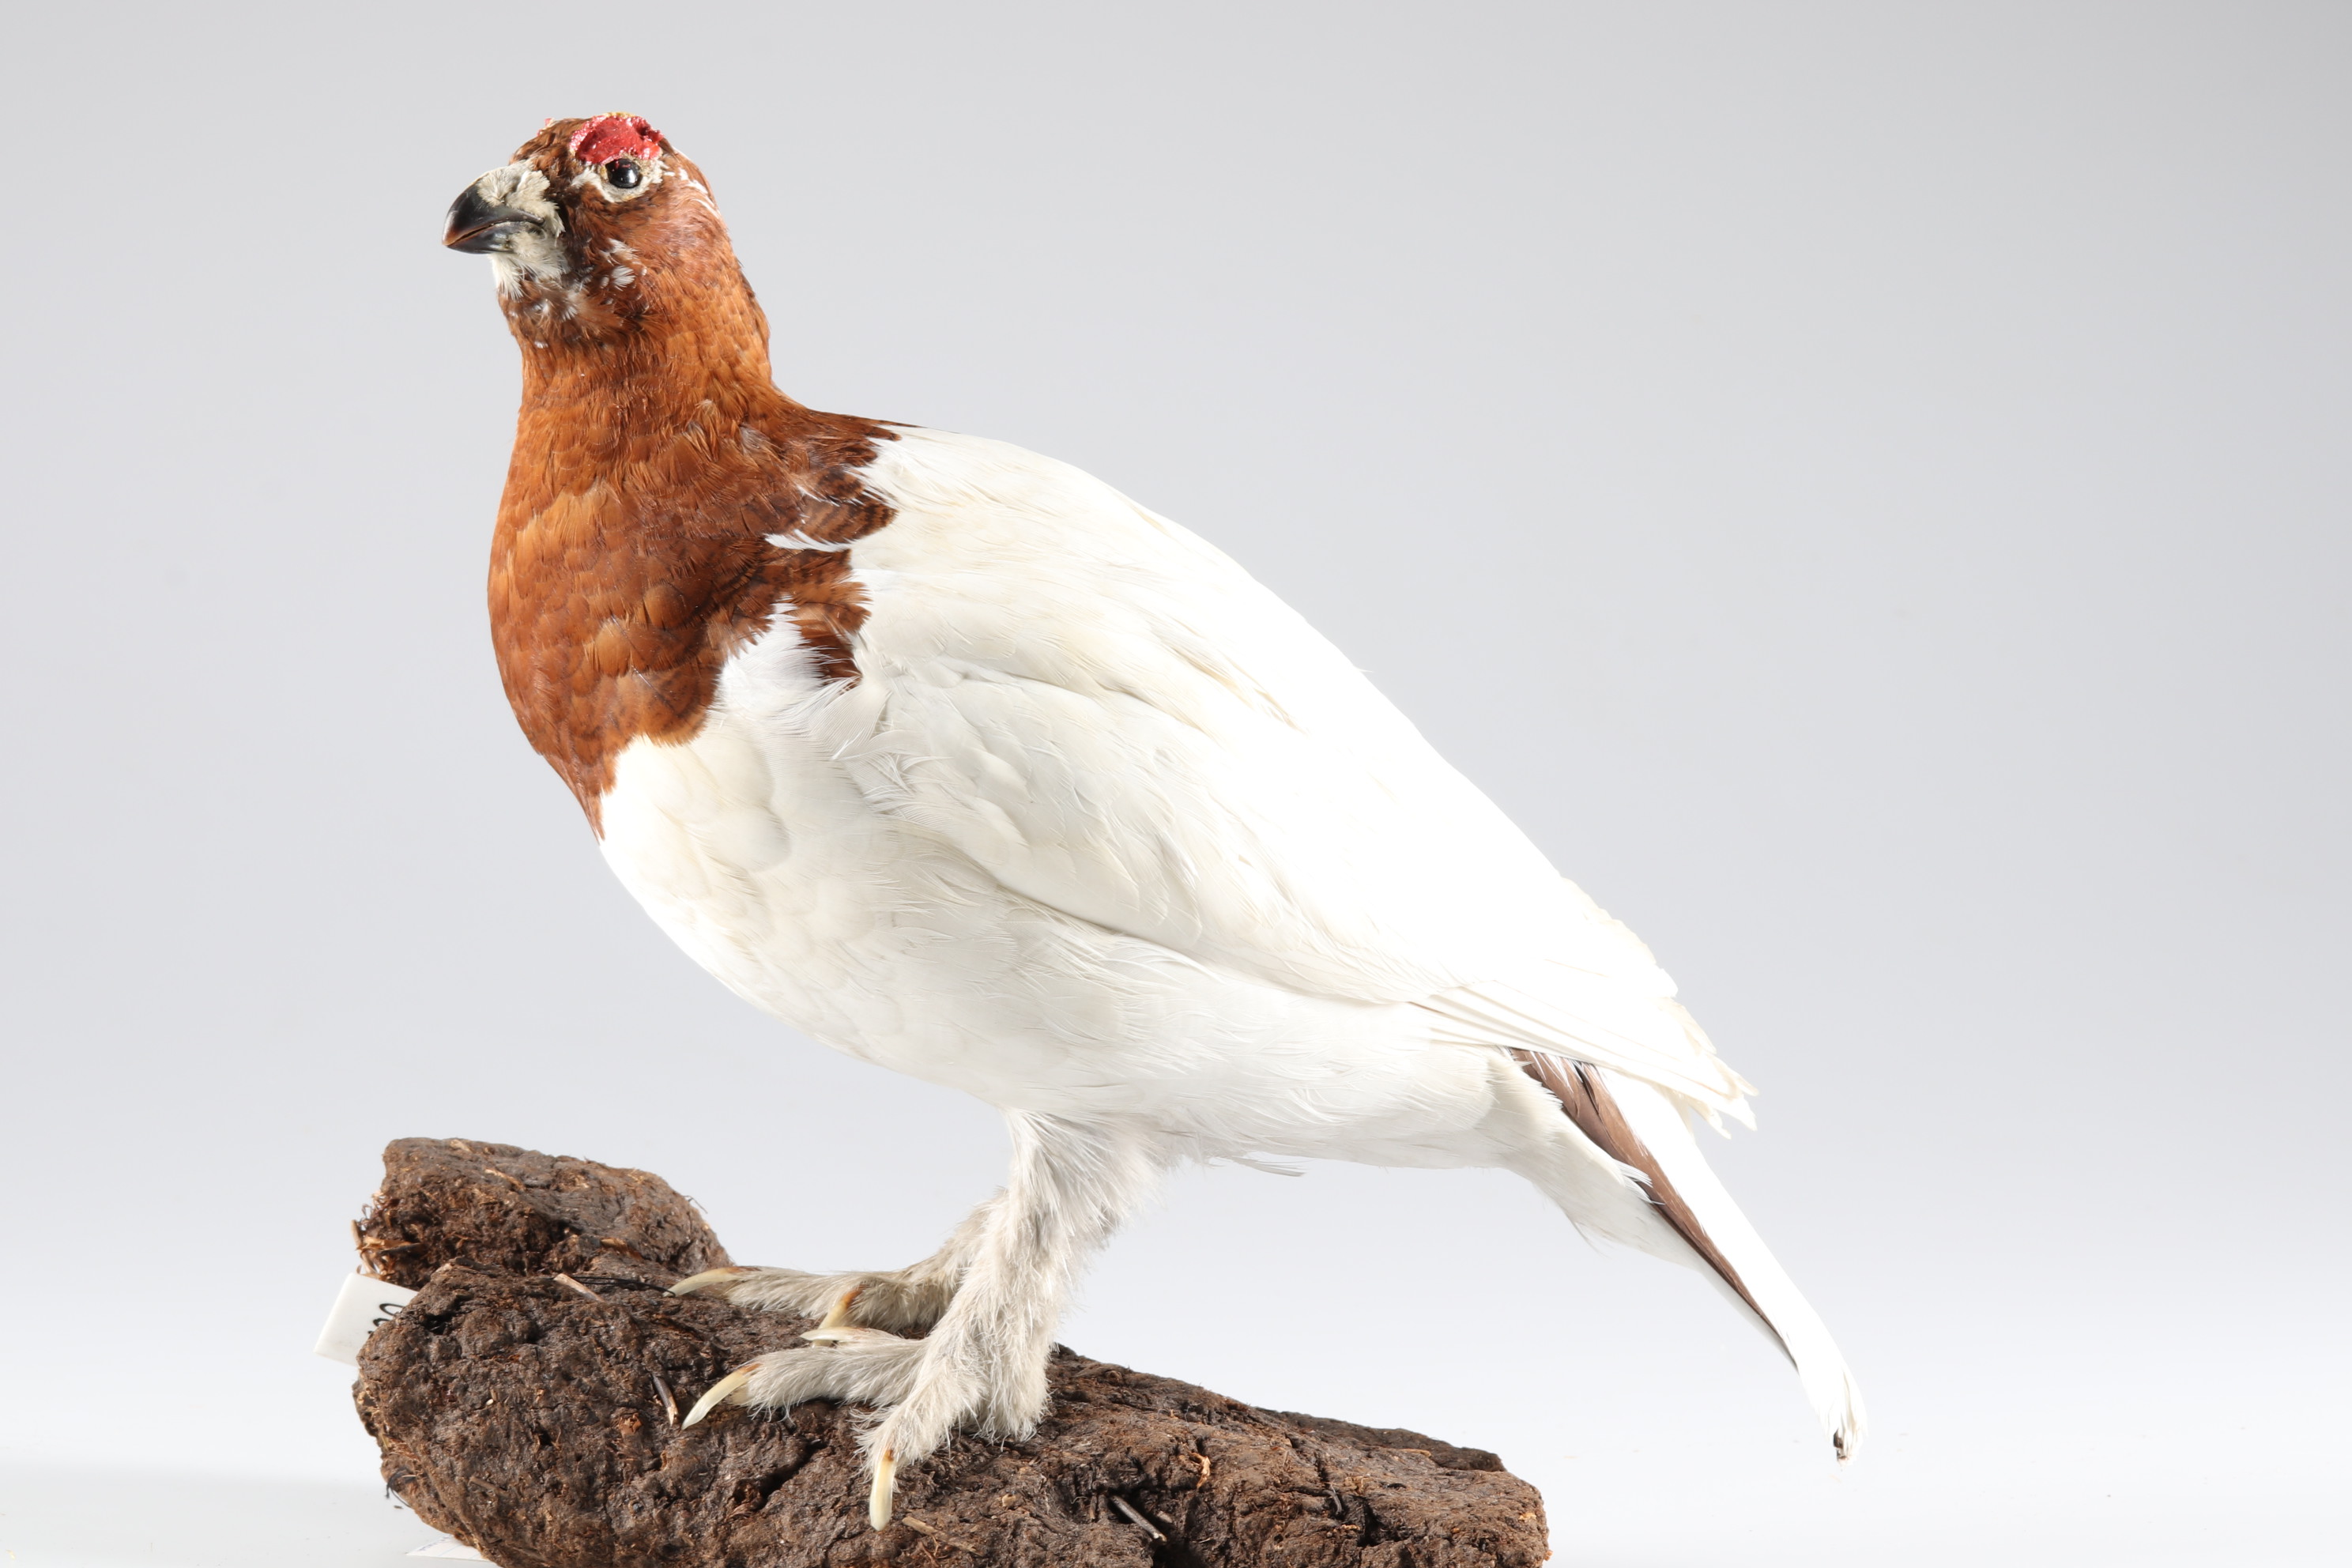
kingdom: Animalia
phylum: Chordata
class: Aves
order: Galliformes
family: Phasianidae
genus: Lagopus
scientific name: Lagopus lagopus
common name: Willow ptarmigan
